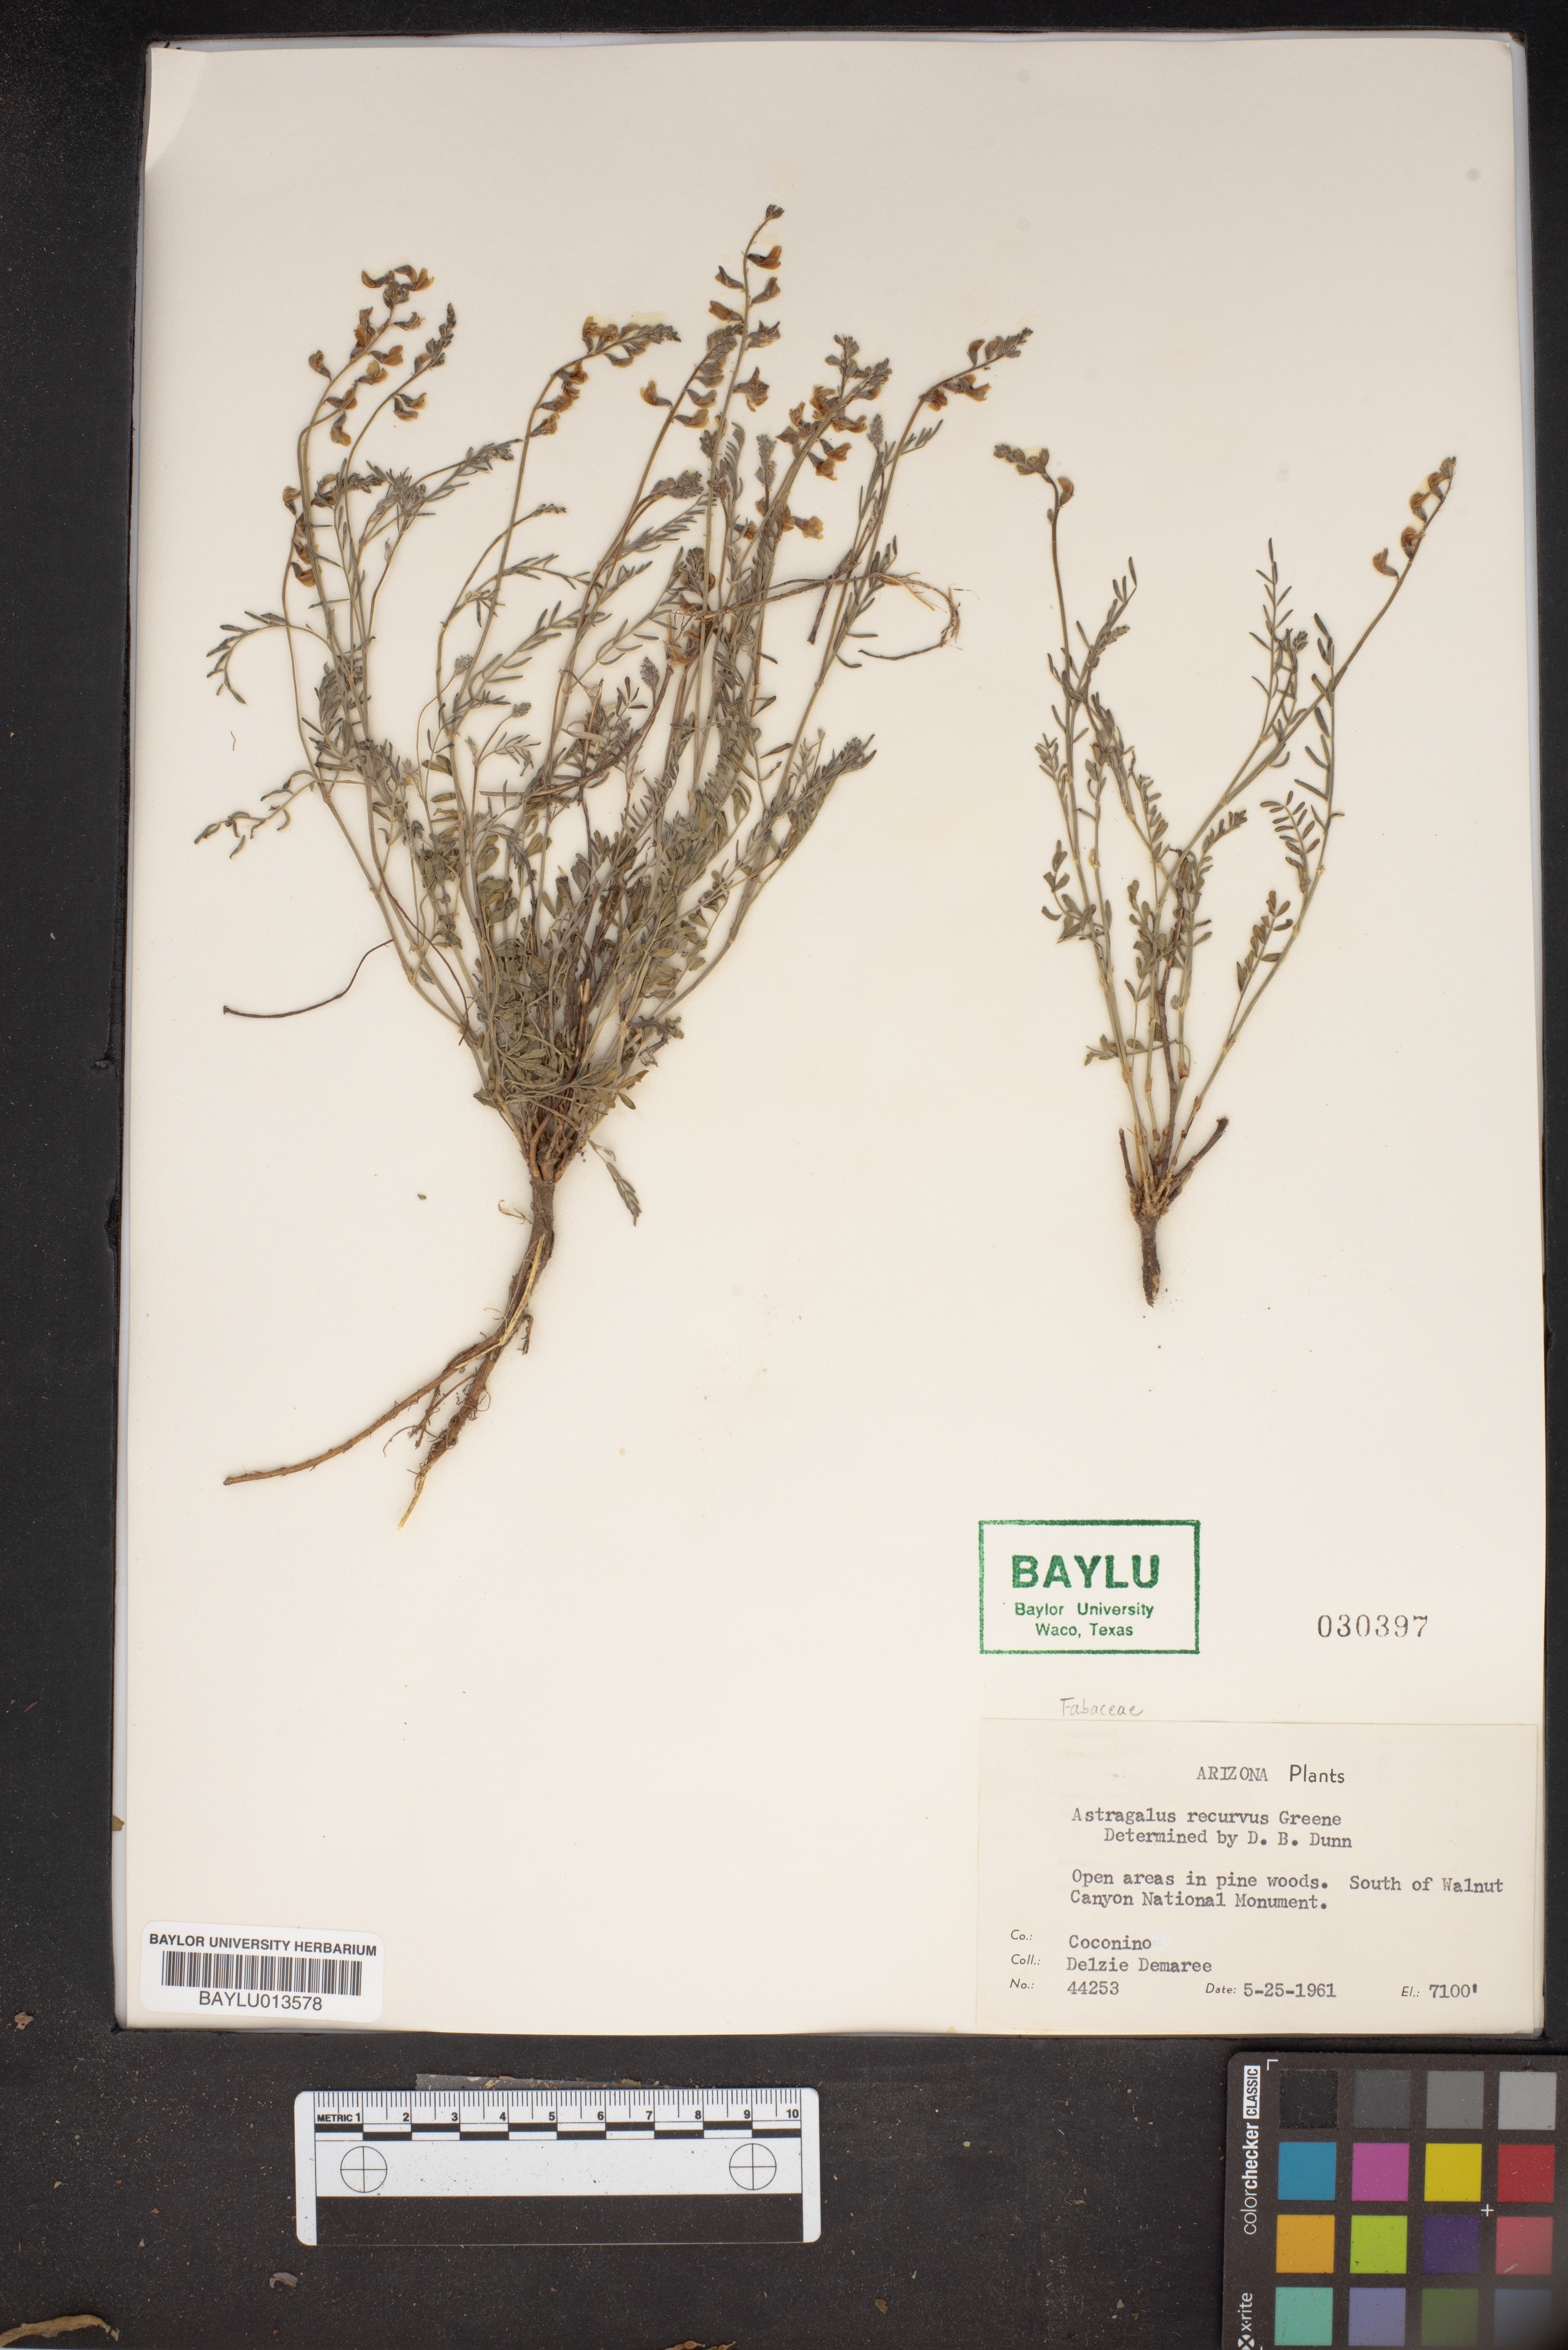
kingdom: Plantae
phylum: Tracheophyta
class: Magnoliopsida
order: Fabales
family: Fabaceae
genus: Astragalus
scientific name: Astragalus recurvus
